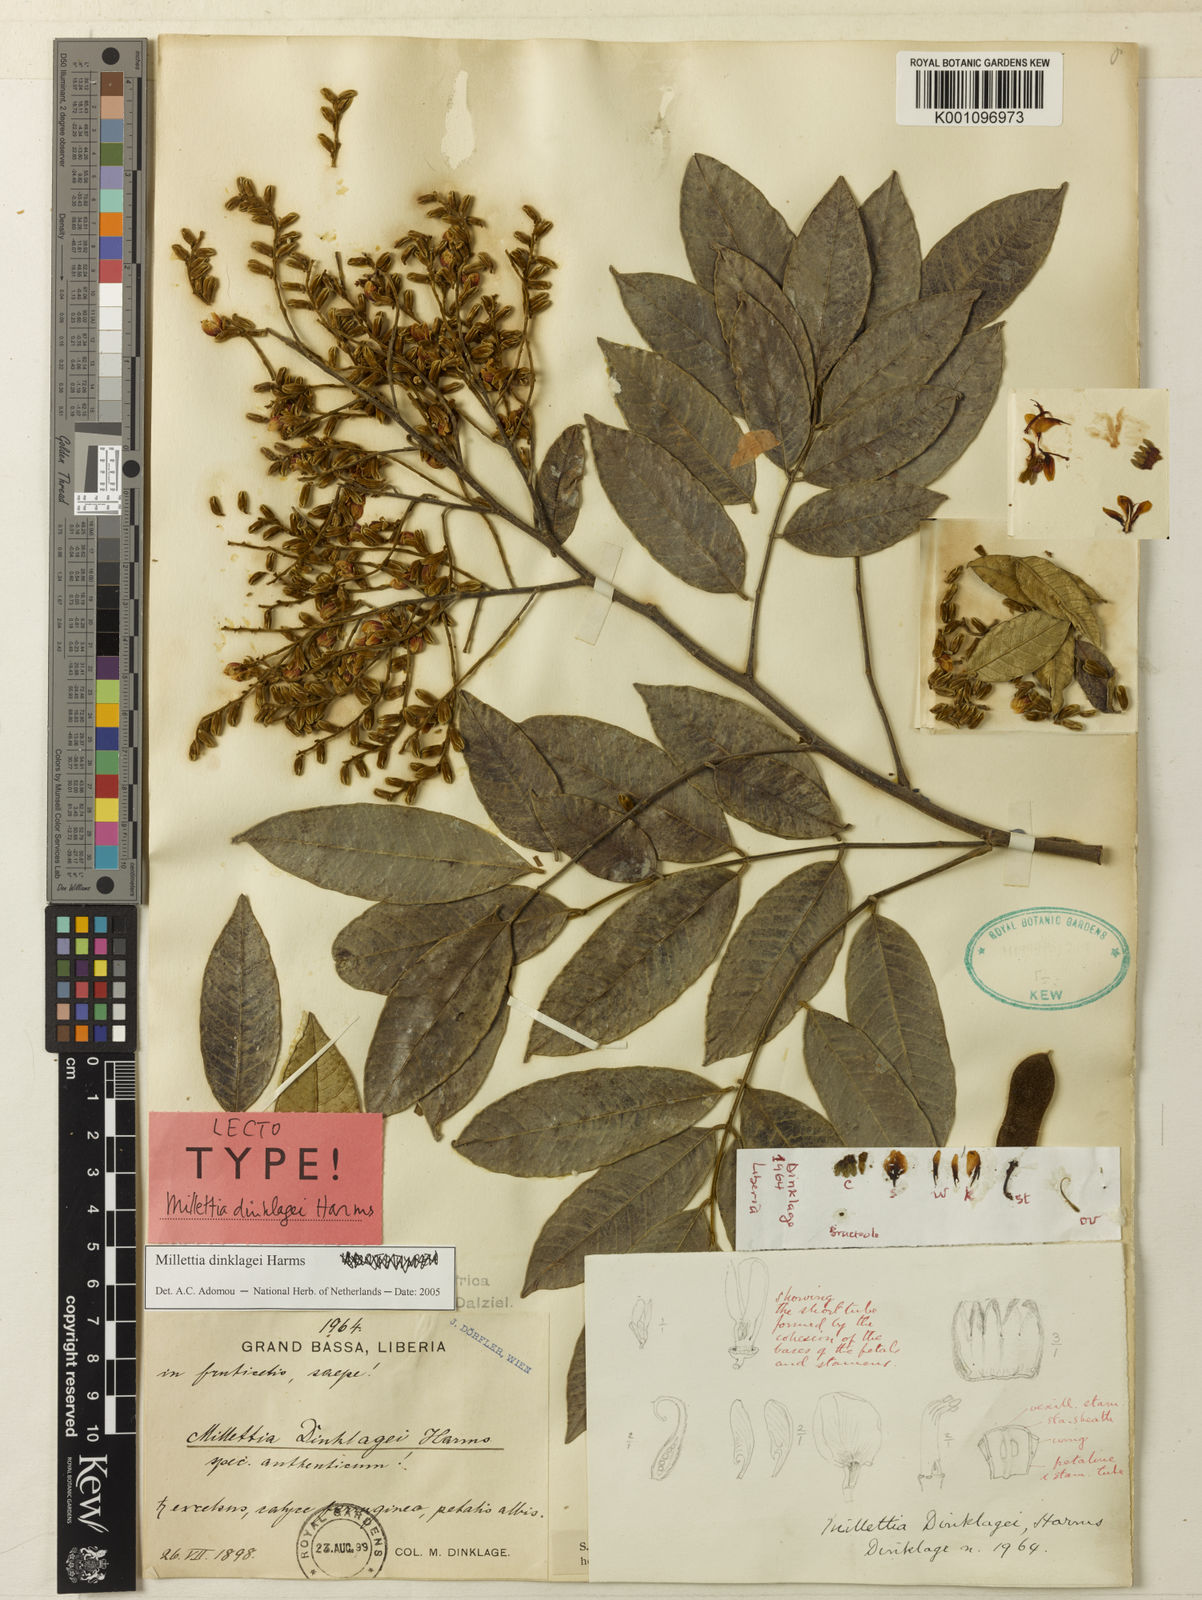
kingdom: Plantae
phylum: Tracheophyta
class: Magnoliopsida
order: Fabales
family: Fabaceae
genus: Millettia
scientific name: Millettia dinklagei
